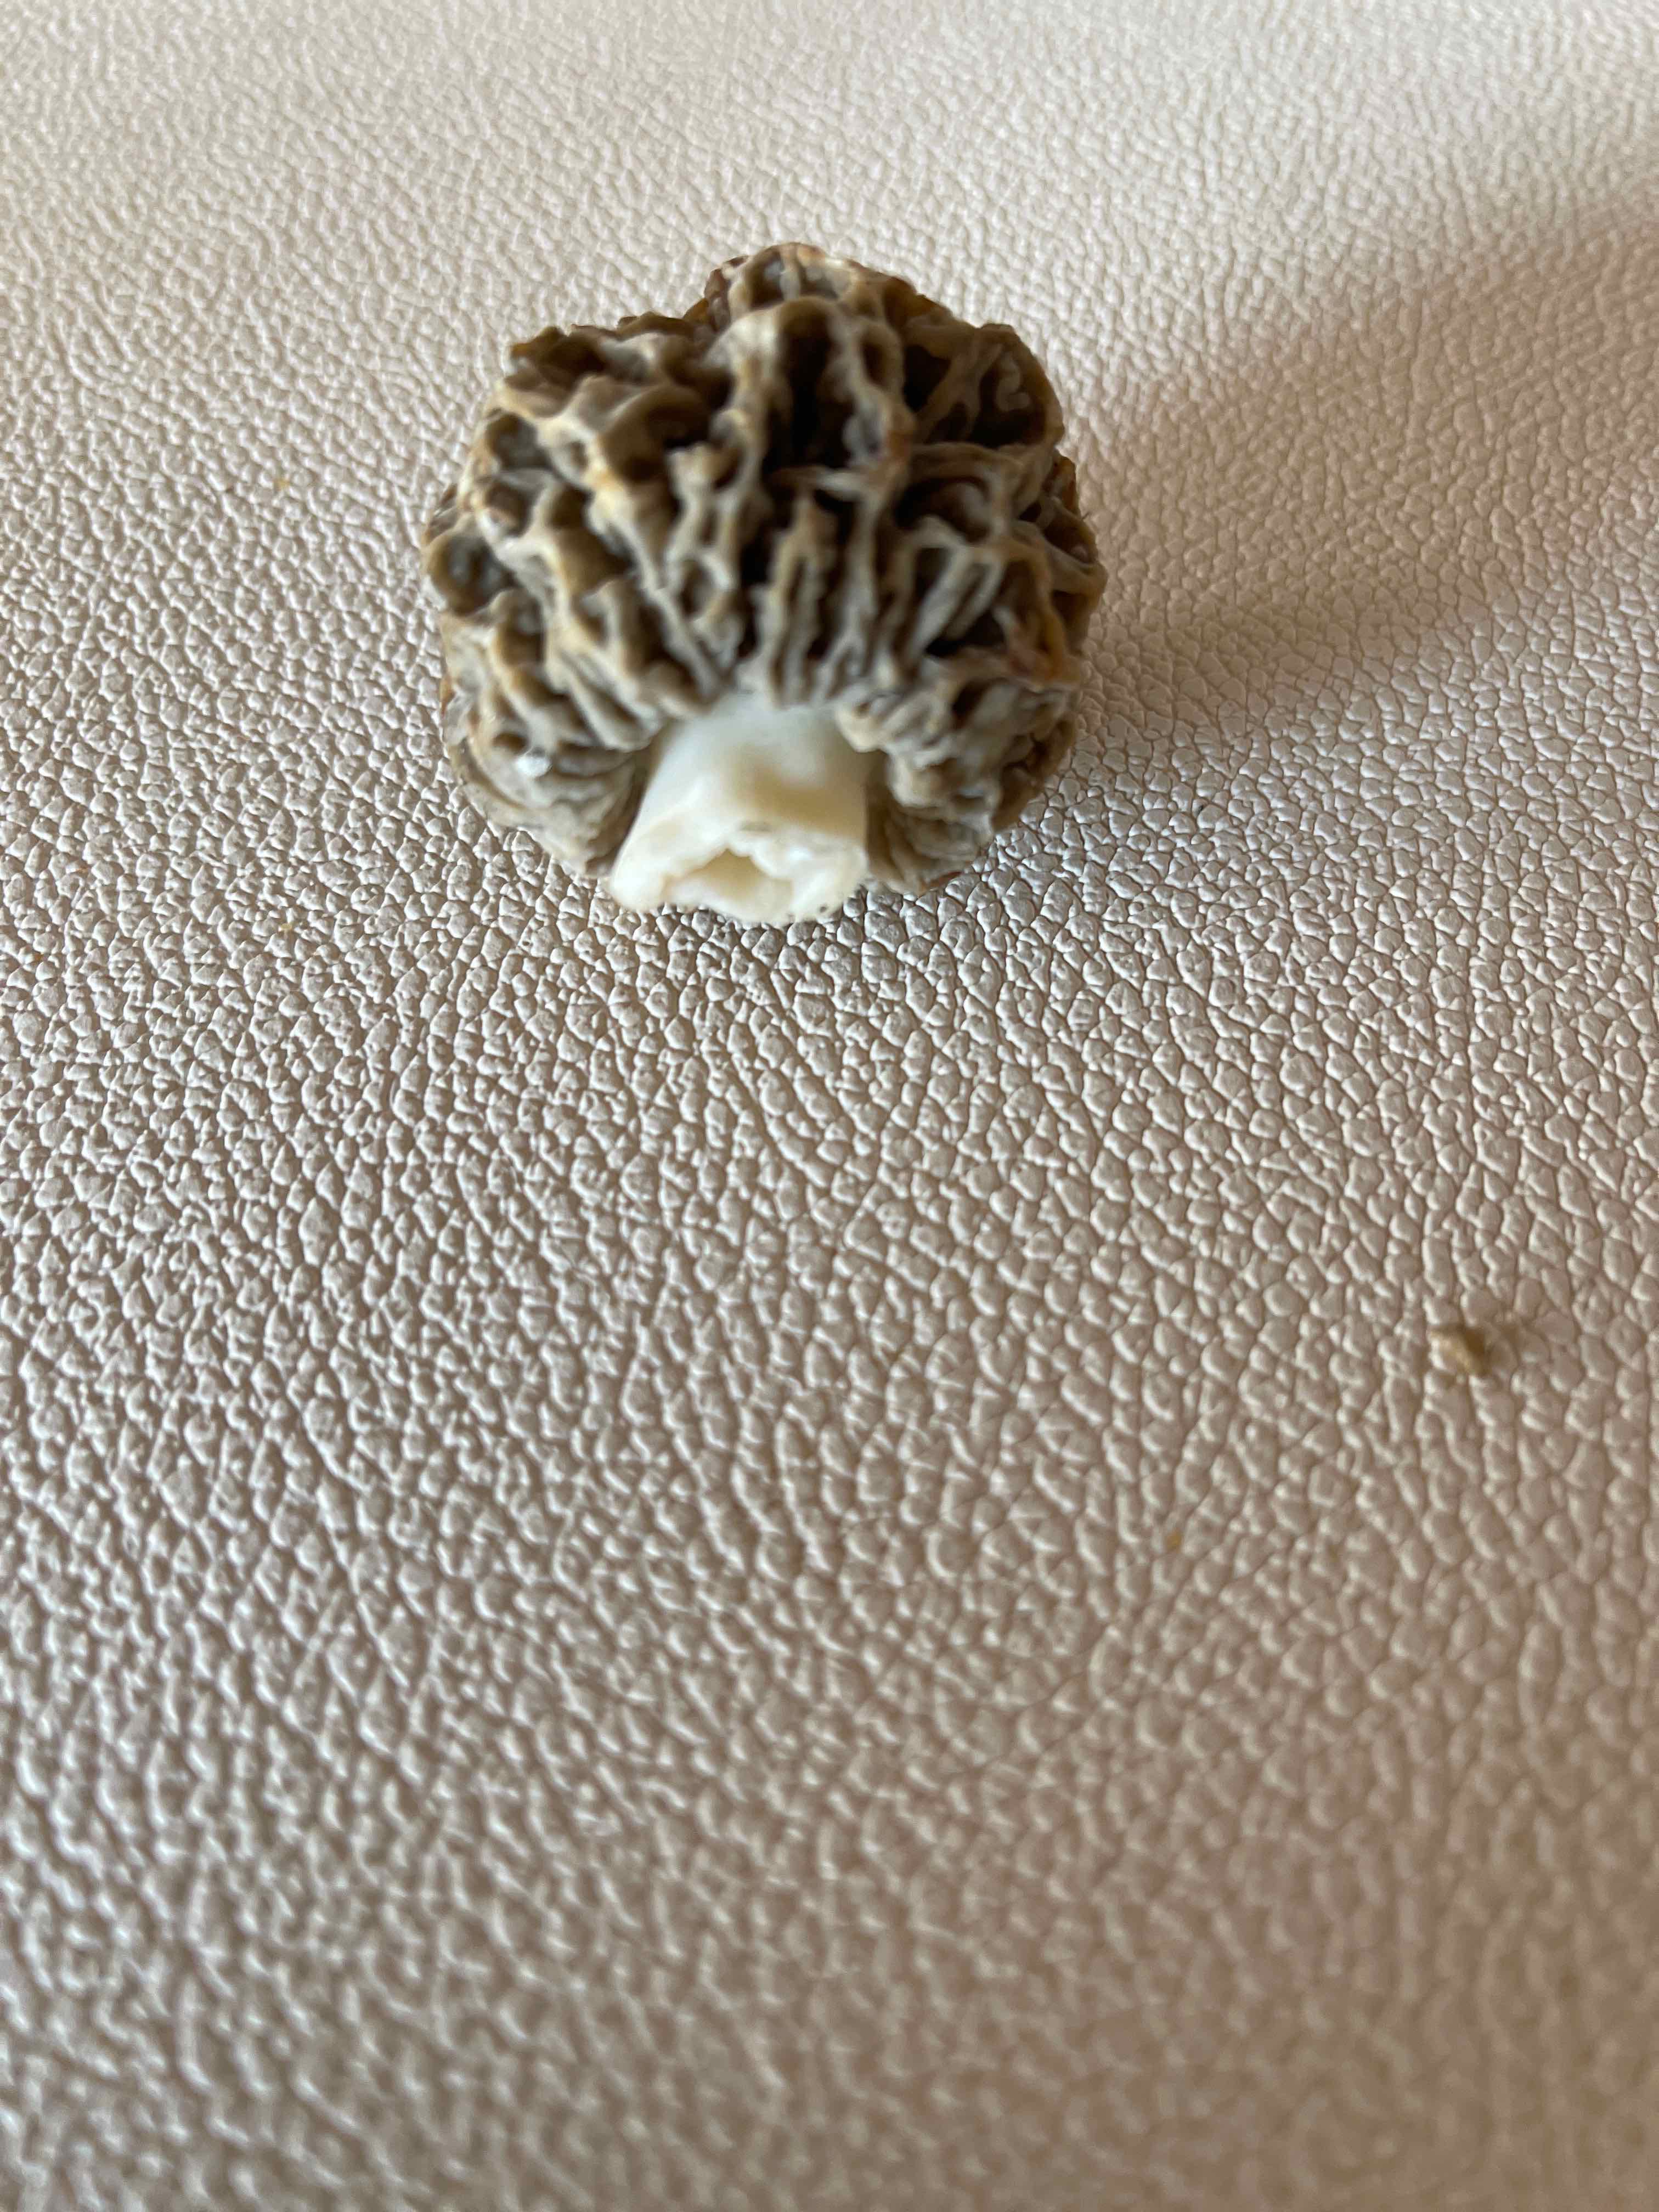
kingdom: Fungi
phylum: Ascomycota
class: Pezizomycetes
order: Pezizales
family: Morchellaceae
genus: Morchella
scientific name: Morchella esculenta
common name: almindelig morkel
